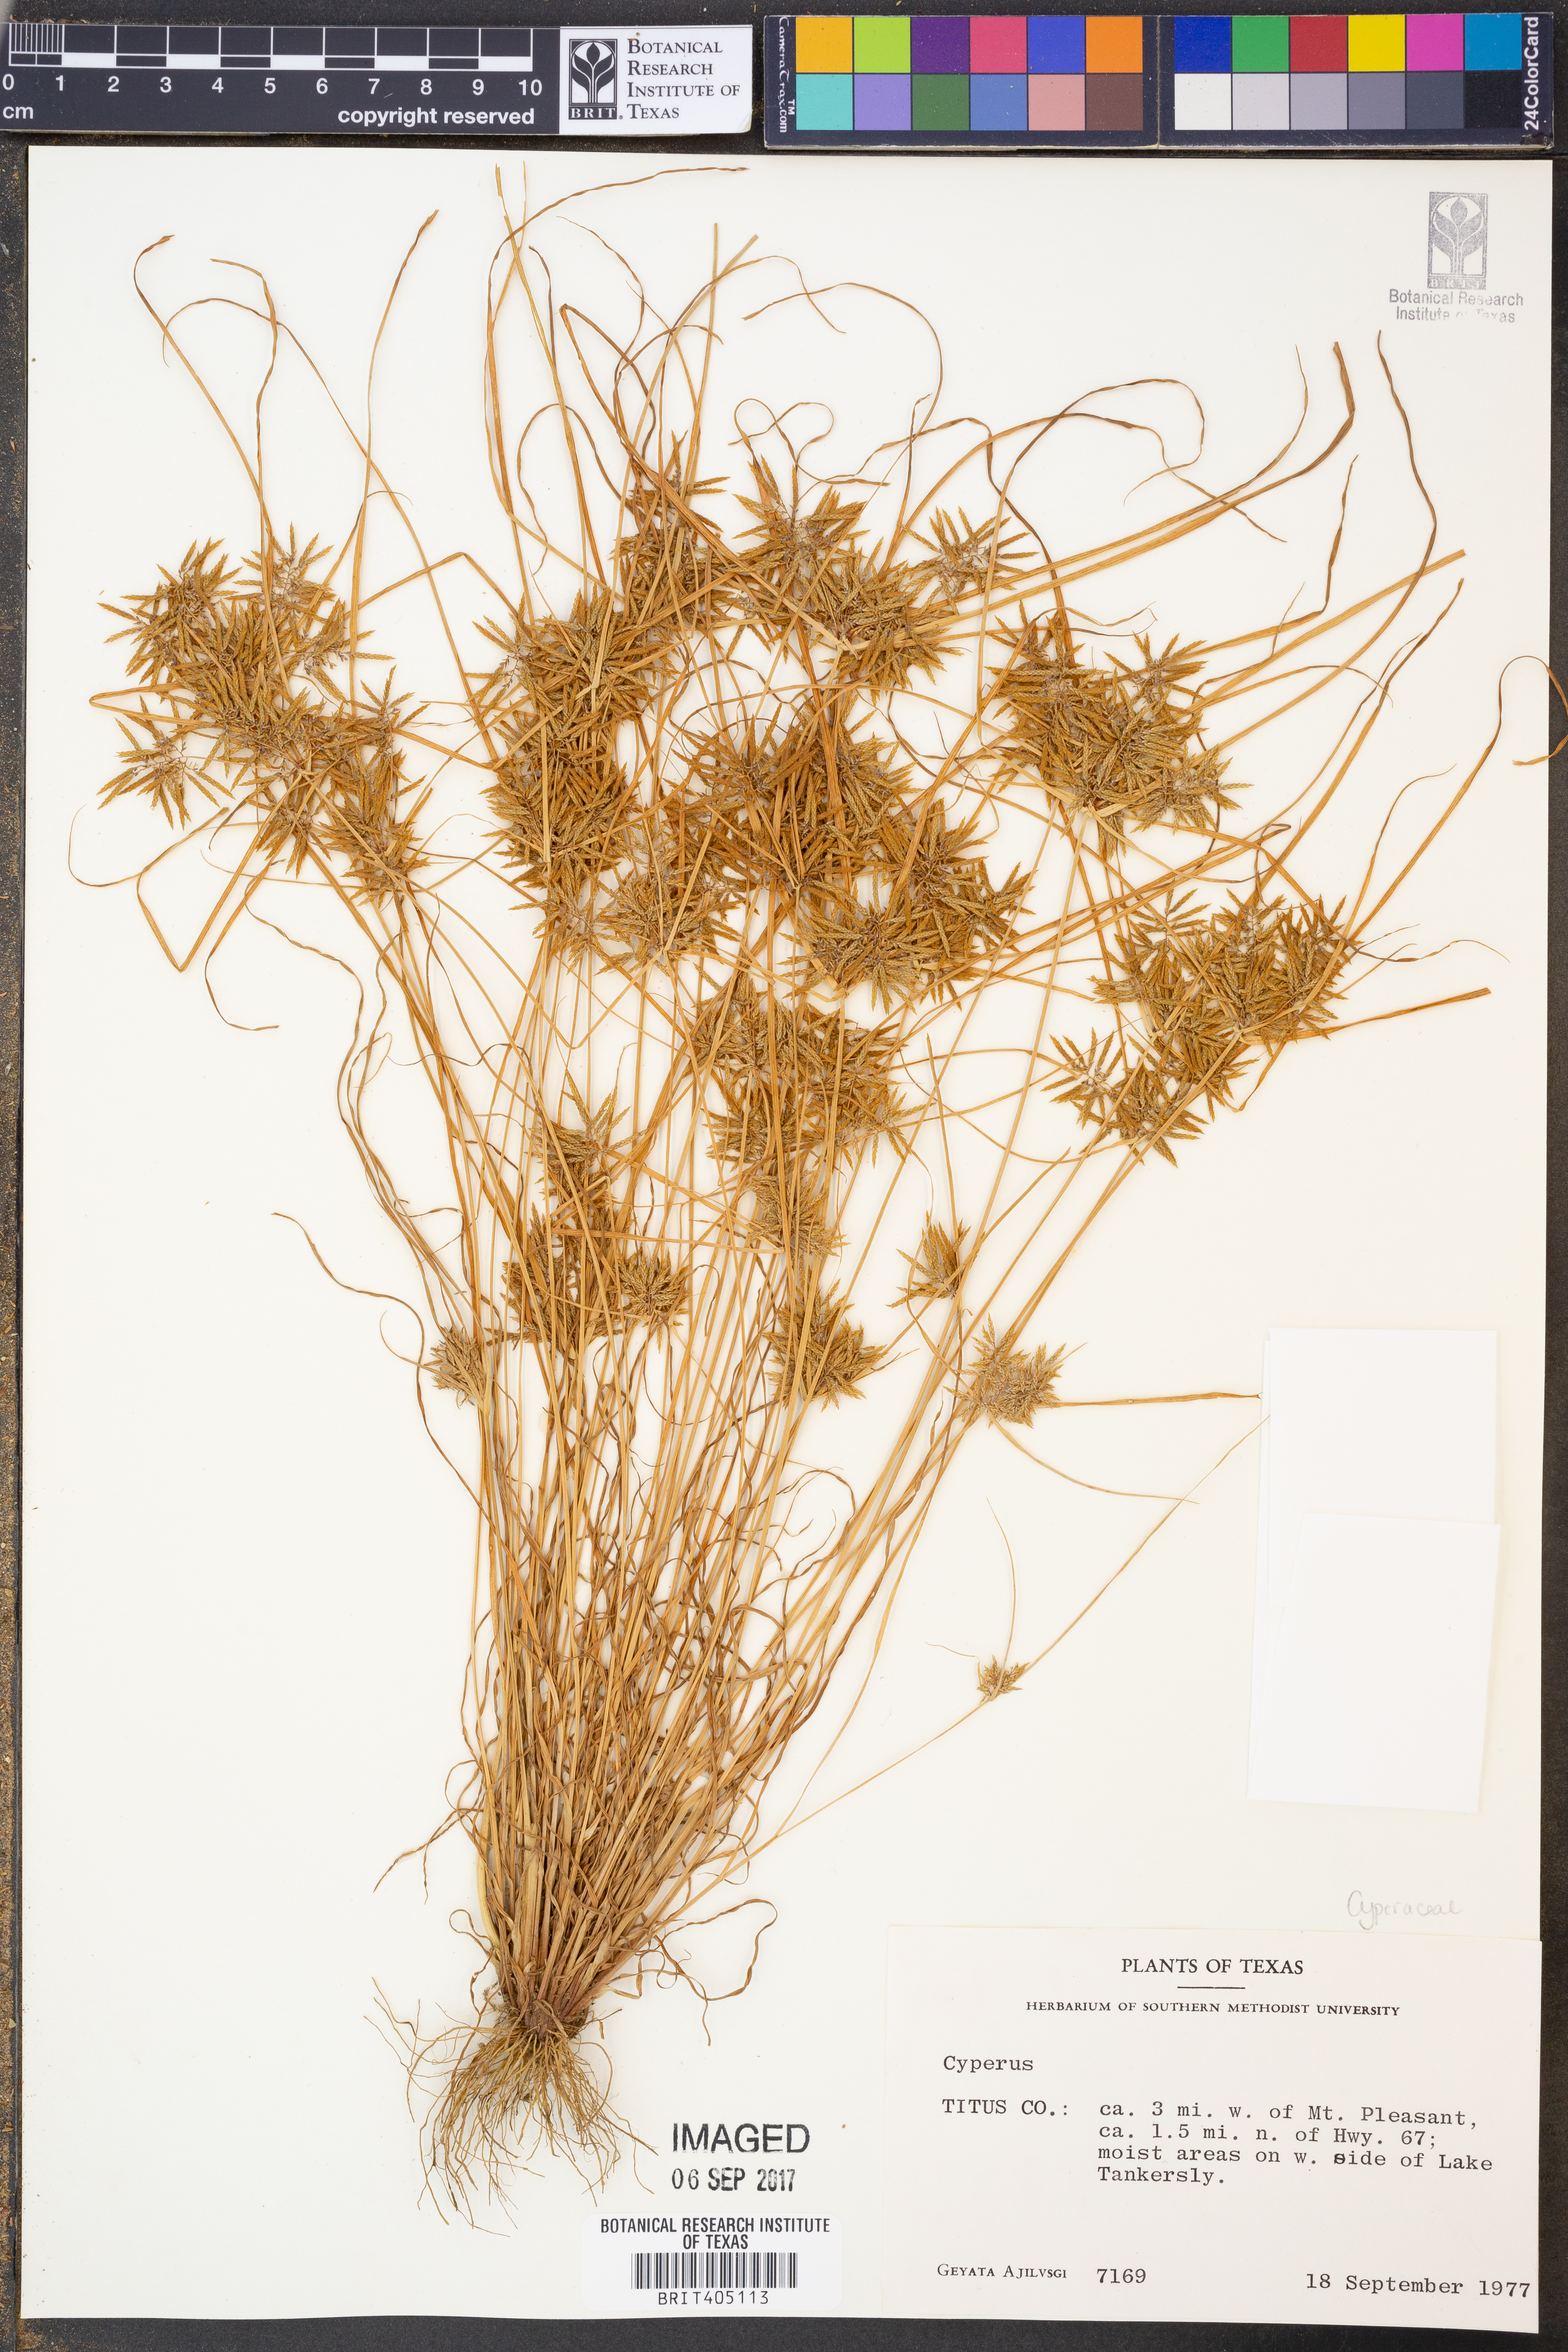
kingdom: Plantae
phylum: Tracheophyta
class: Liliopsida
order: Poales
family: Cyperaceae
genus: Cyperus
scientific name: Cyperus
